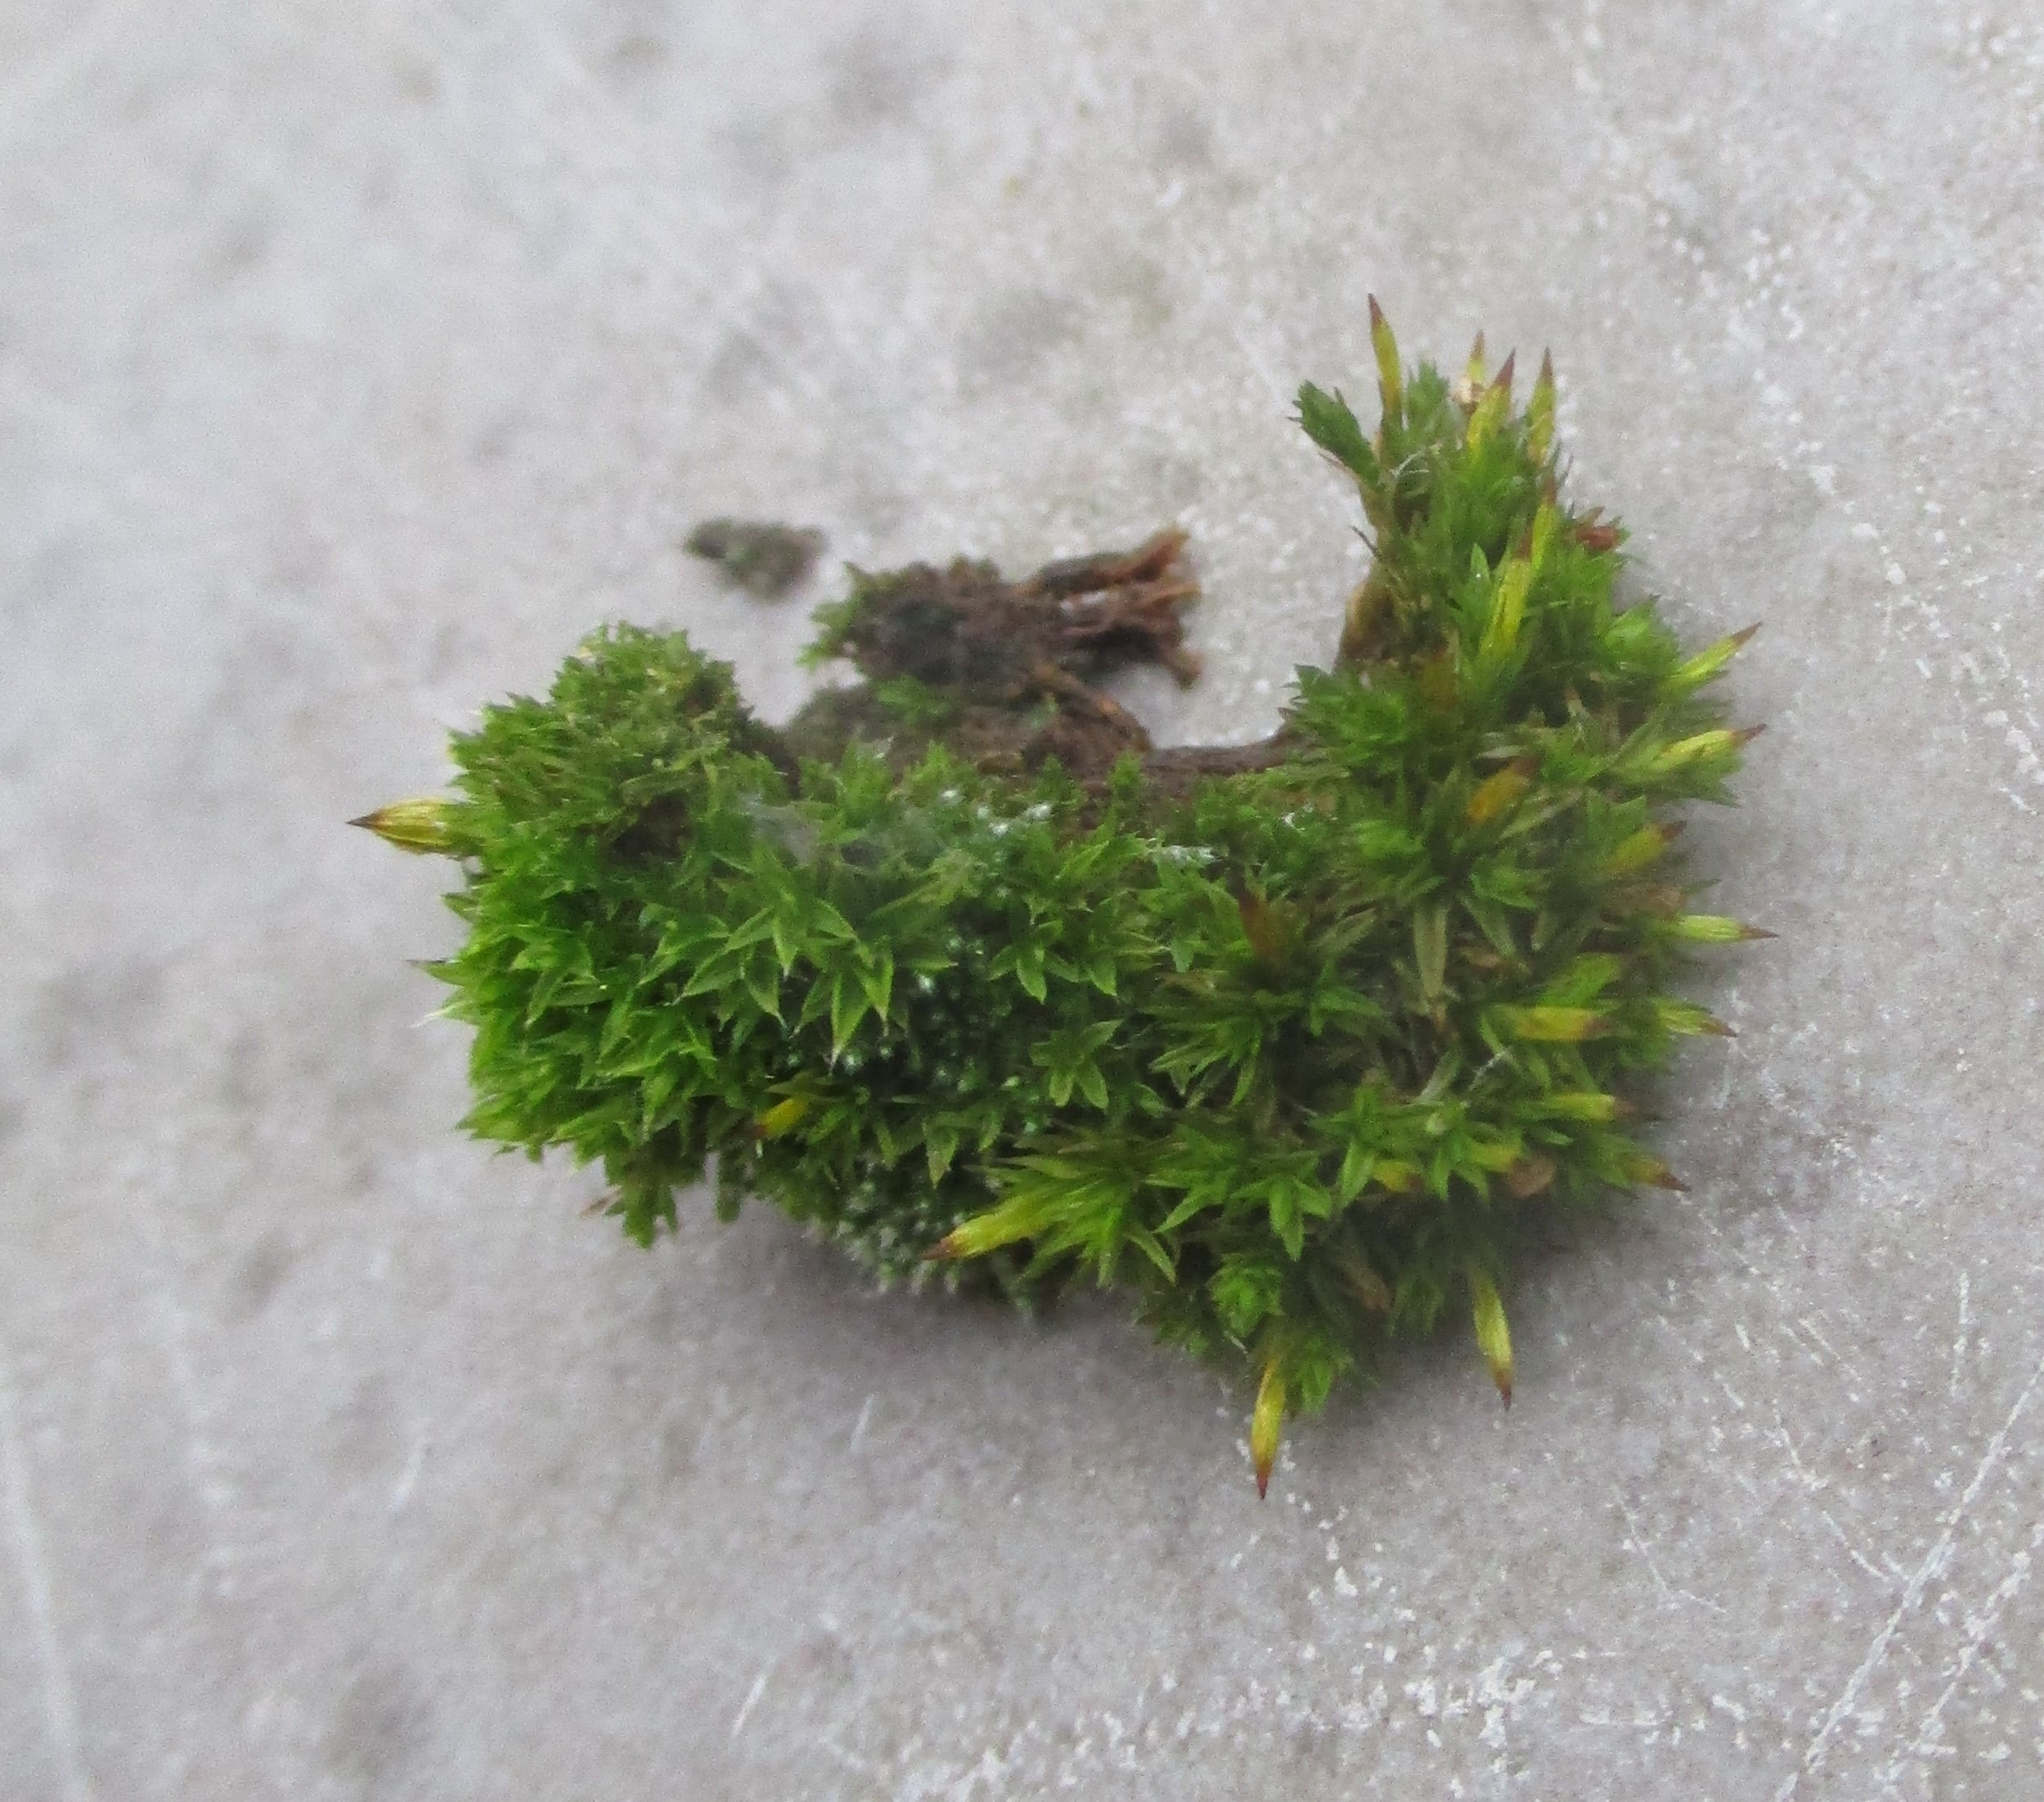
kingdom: Plantae
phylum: Bryophyta
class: Bryopsida
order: Orthotrichales
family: Orthotrichaceae
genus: Orthotrichum
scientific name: Orthotrichum
